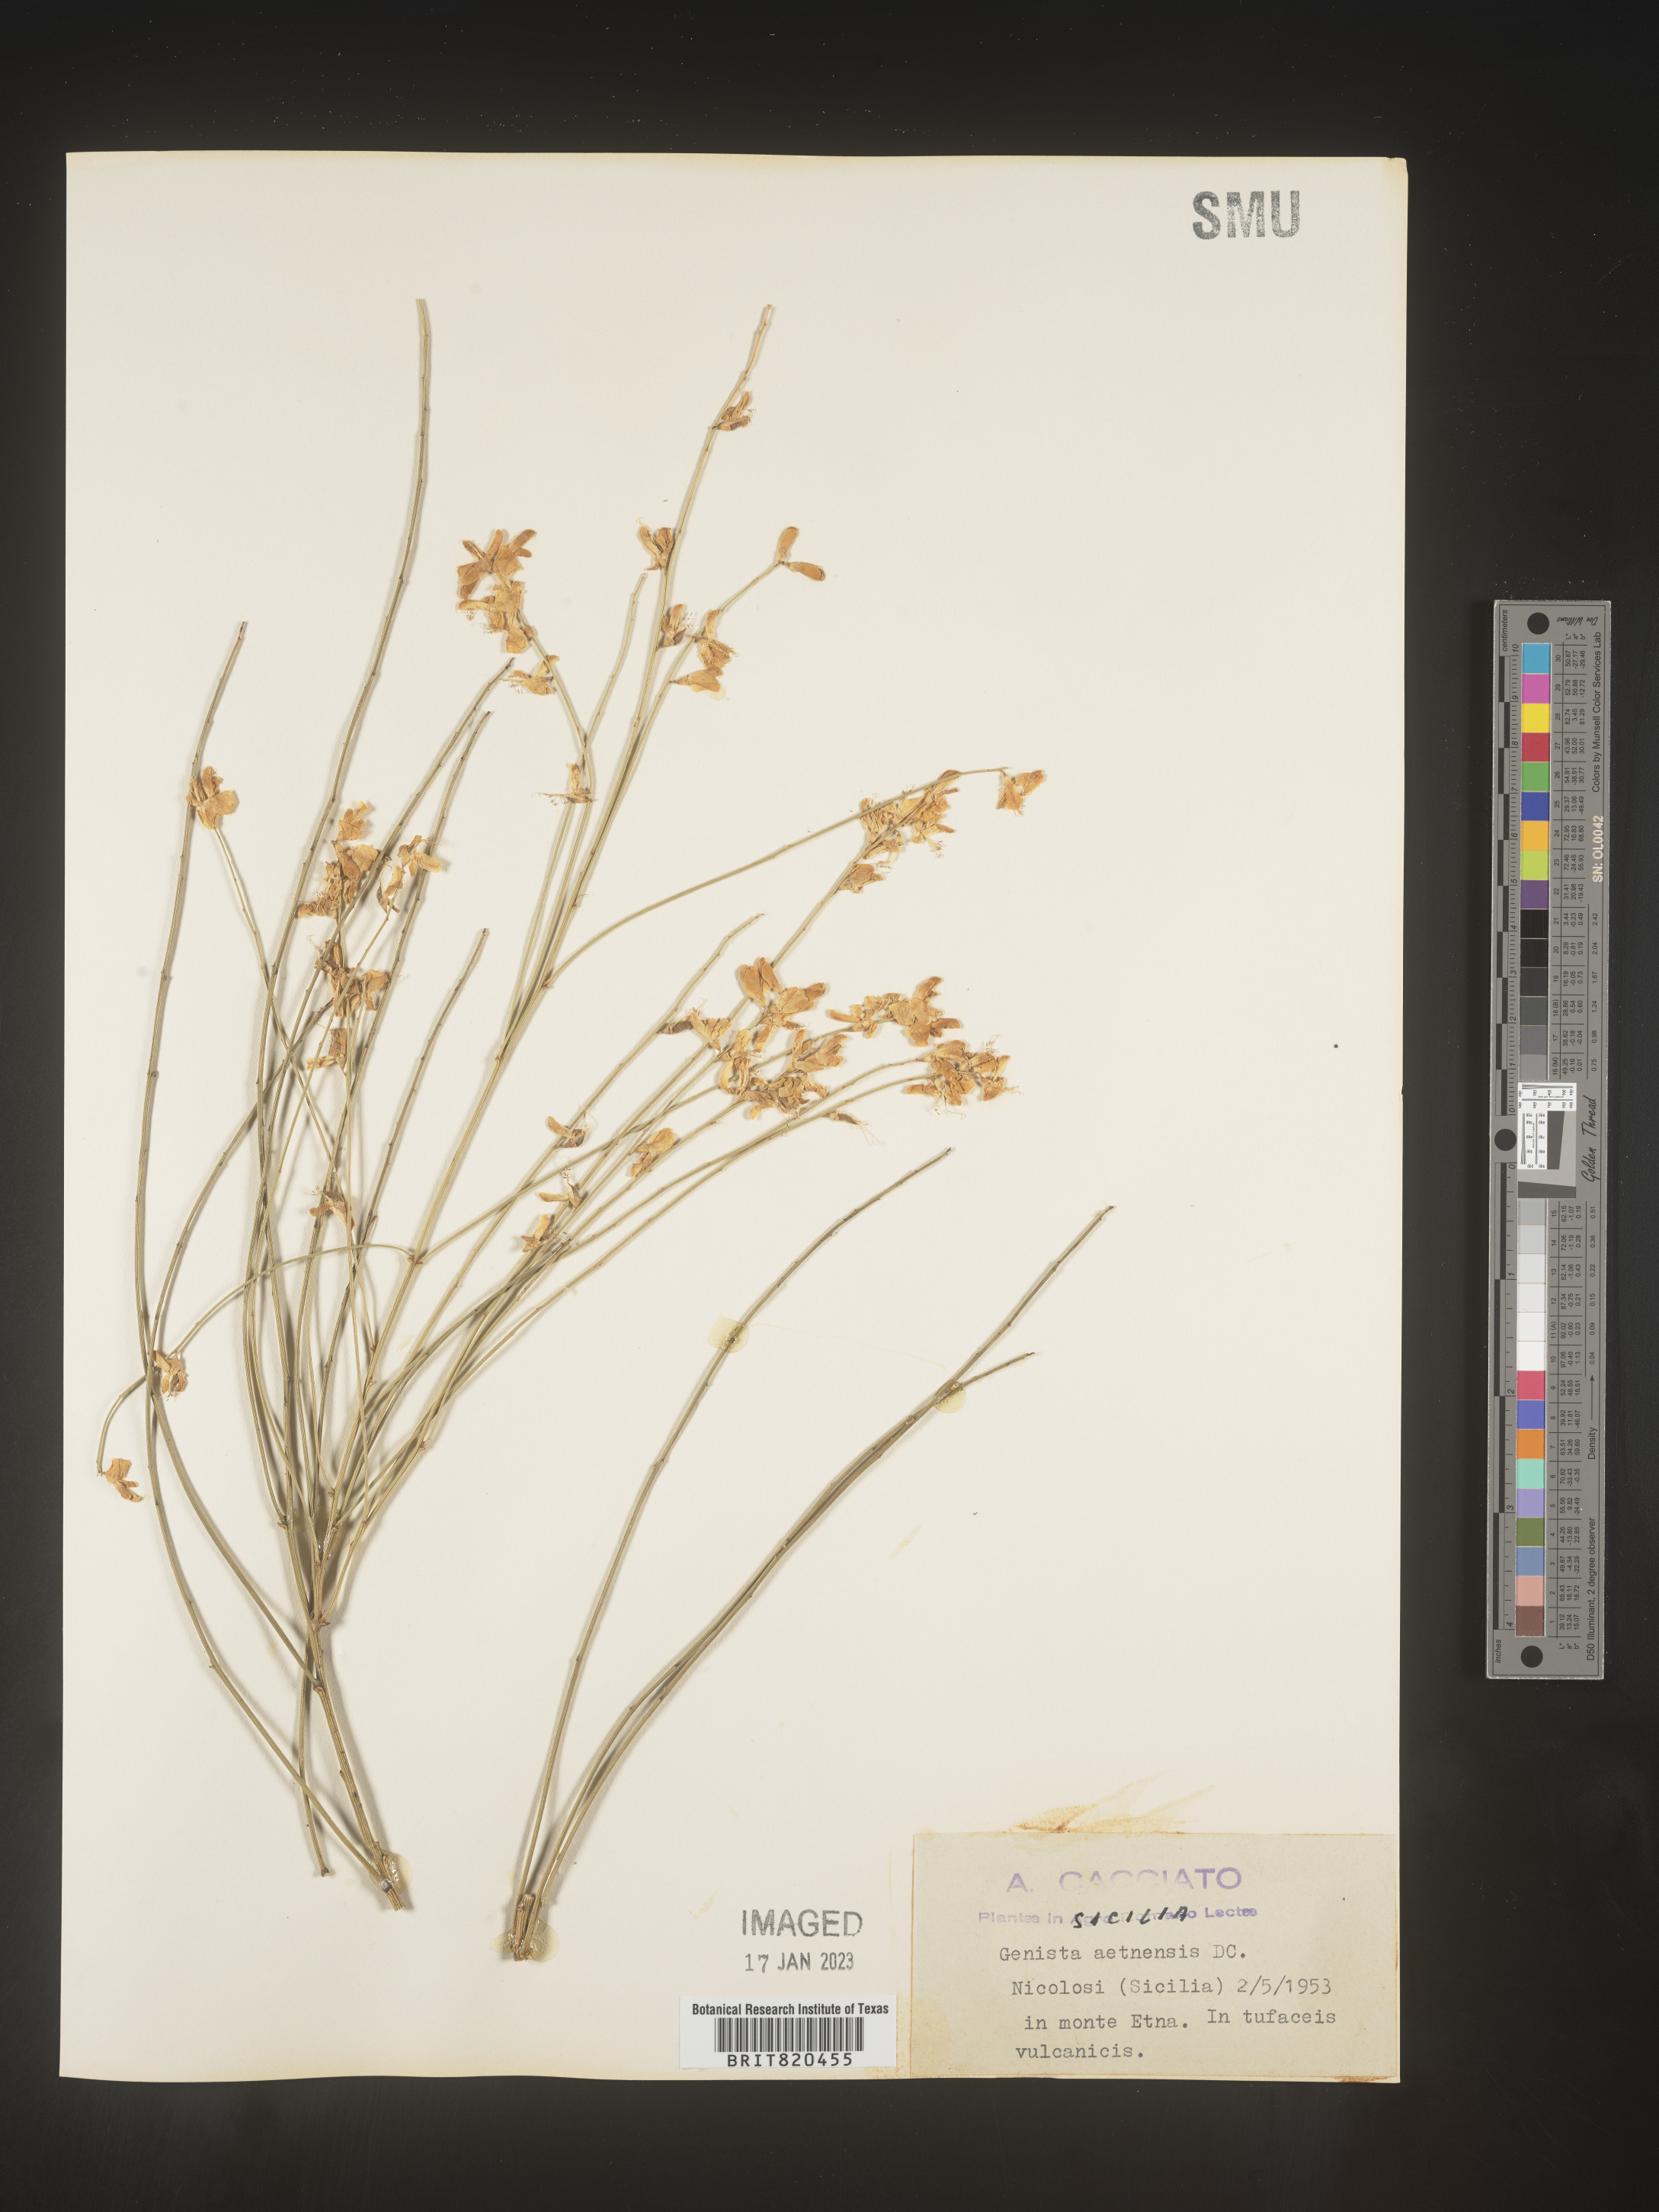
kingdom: Plantae
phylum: Tracheophyta
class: Magnoliopsida
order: Fabales
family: Fabaceae
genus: Genista
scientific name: Genista
